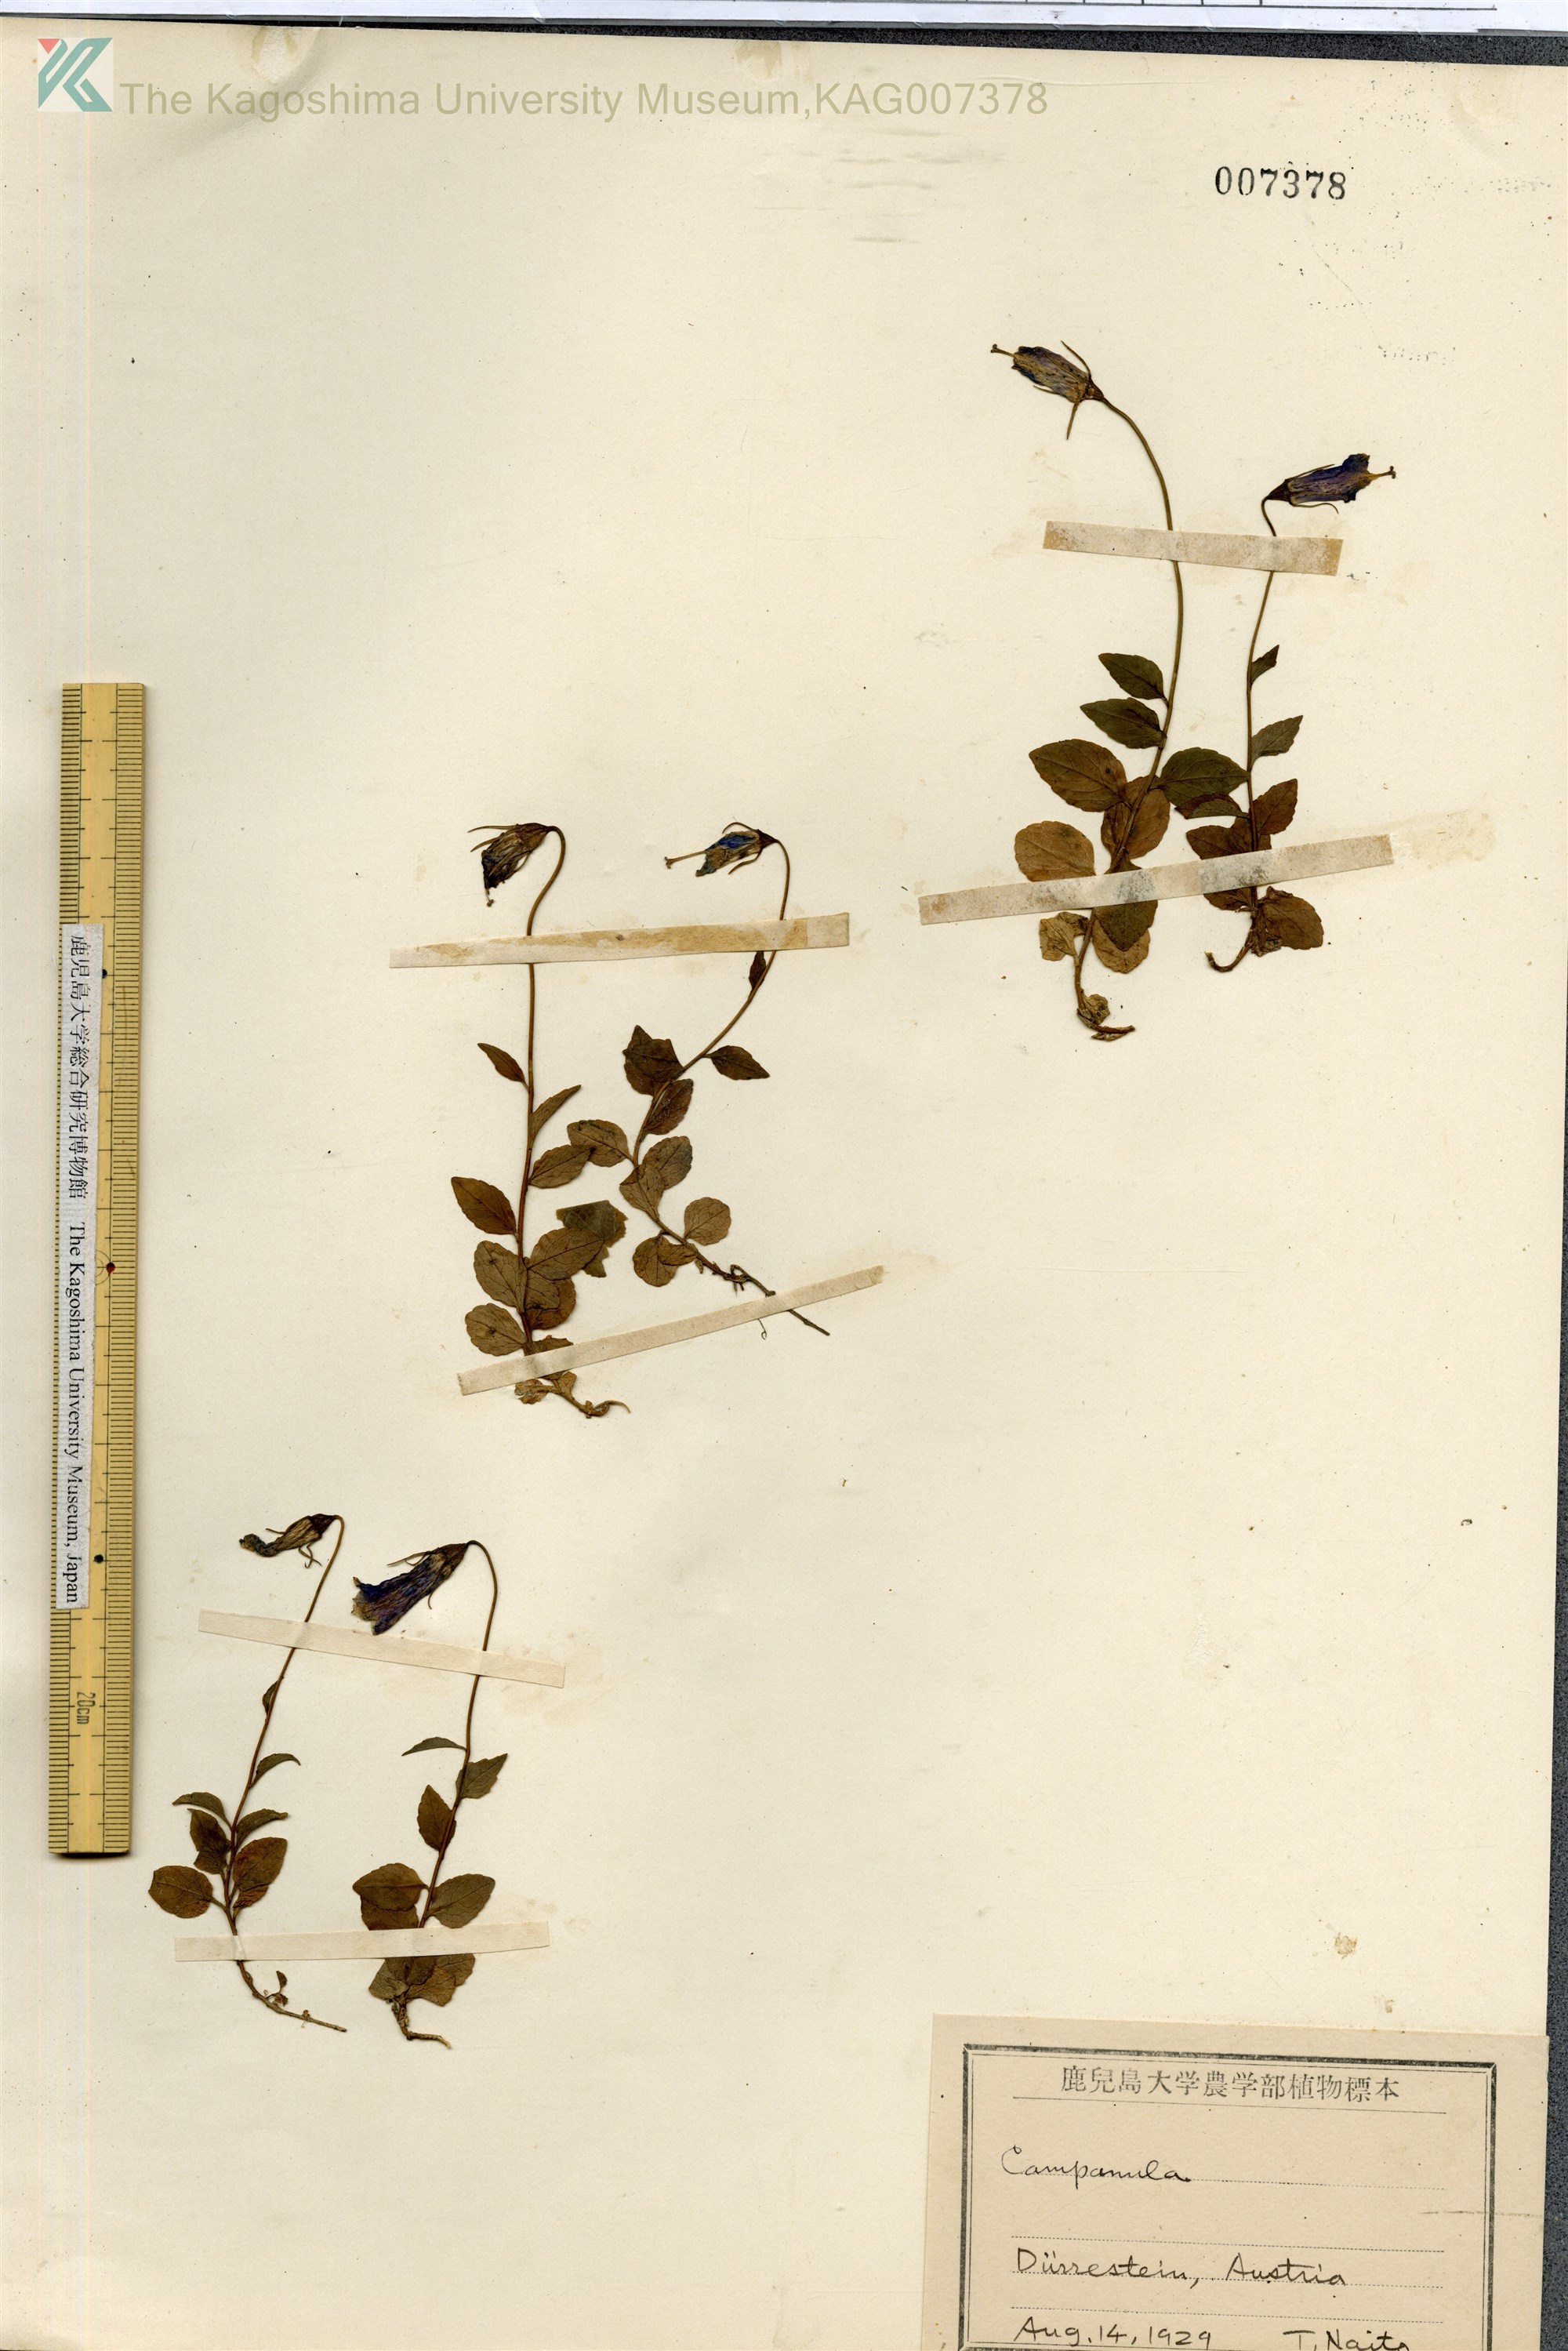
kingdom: Plantae
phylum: Tracheophyta
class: Magnoliopsida
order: Asterales
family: Campanulaceae
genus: Campanula
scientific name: Campanula
